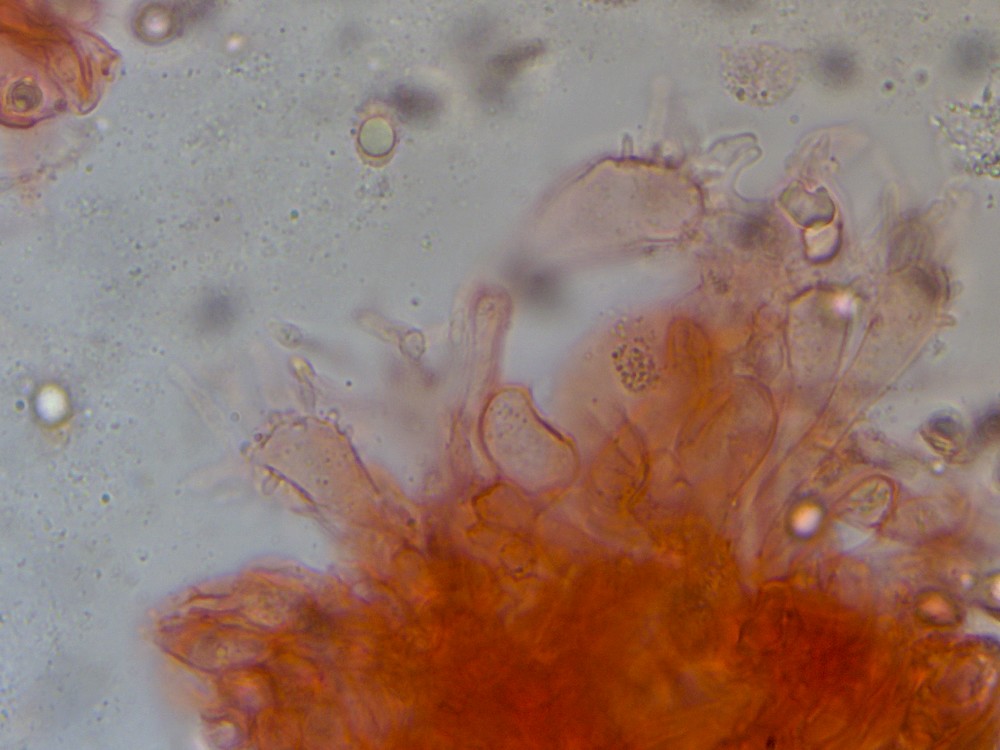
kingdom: Fungi
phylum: Basidiomycota
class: Agaricomycetes
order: Agaricales
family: Mycenaceae
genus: Mycena
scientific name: Mycena chlorantha
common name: klit-huesvamp
